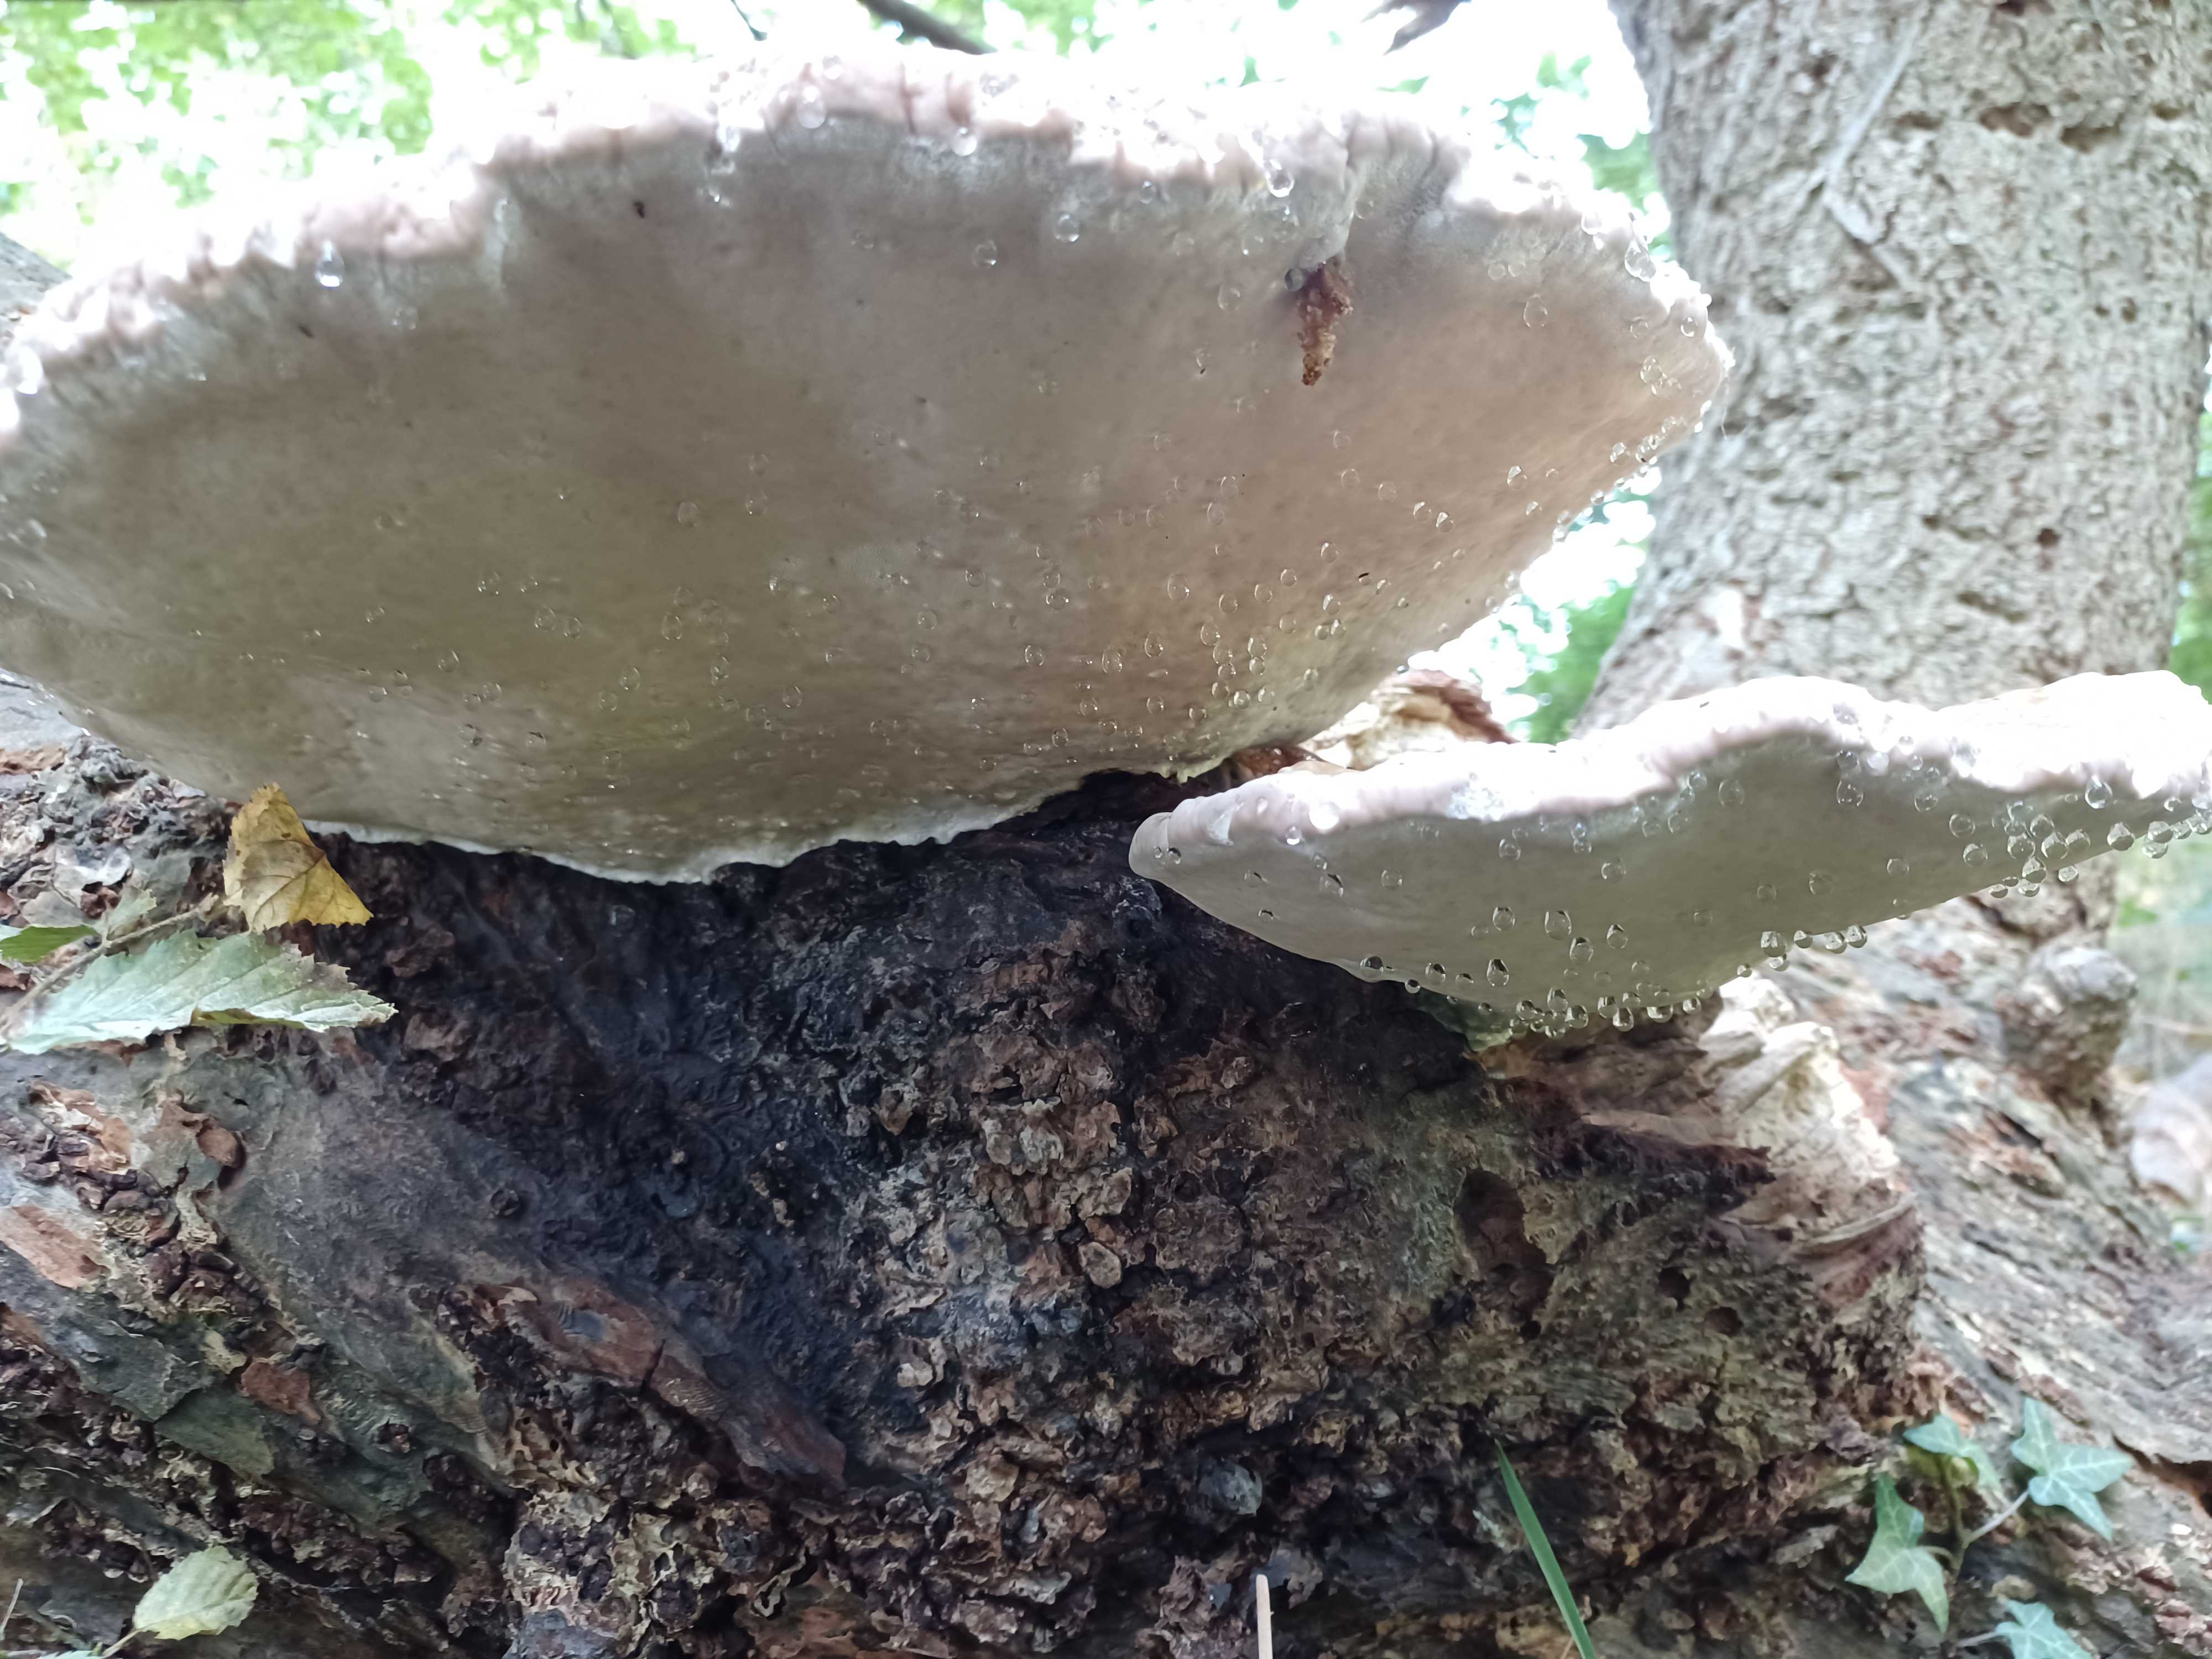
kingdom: Fungi
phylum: Basidiomycota
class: Agaricomycetes
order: Polyporales
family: Fomitopsidaceae
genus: Fomitopsis
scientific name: Fomitopsis pinicola
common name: randbæltet hovporesvamp
